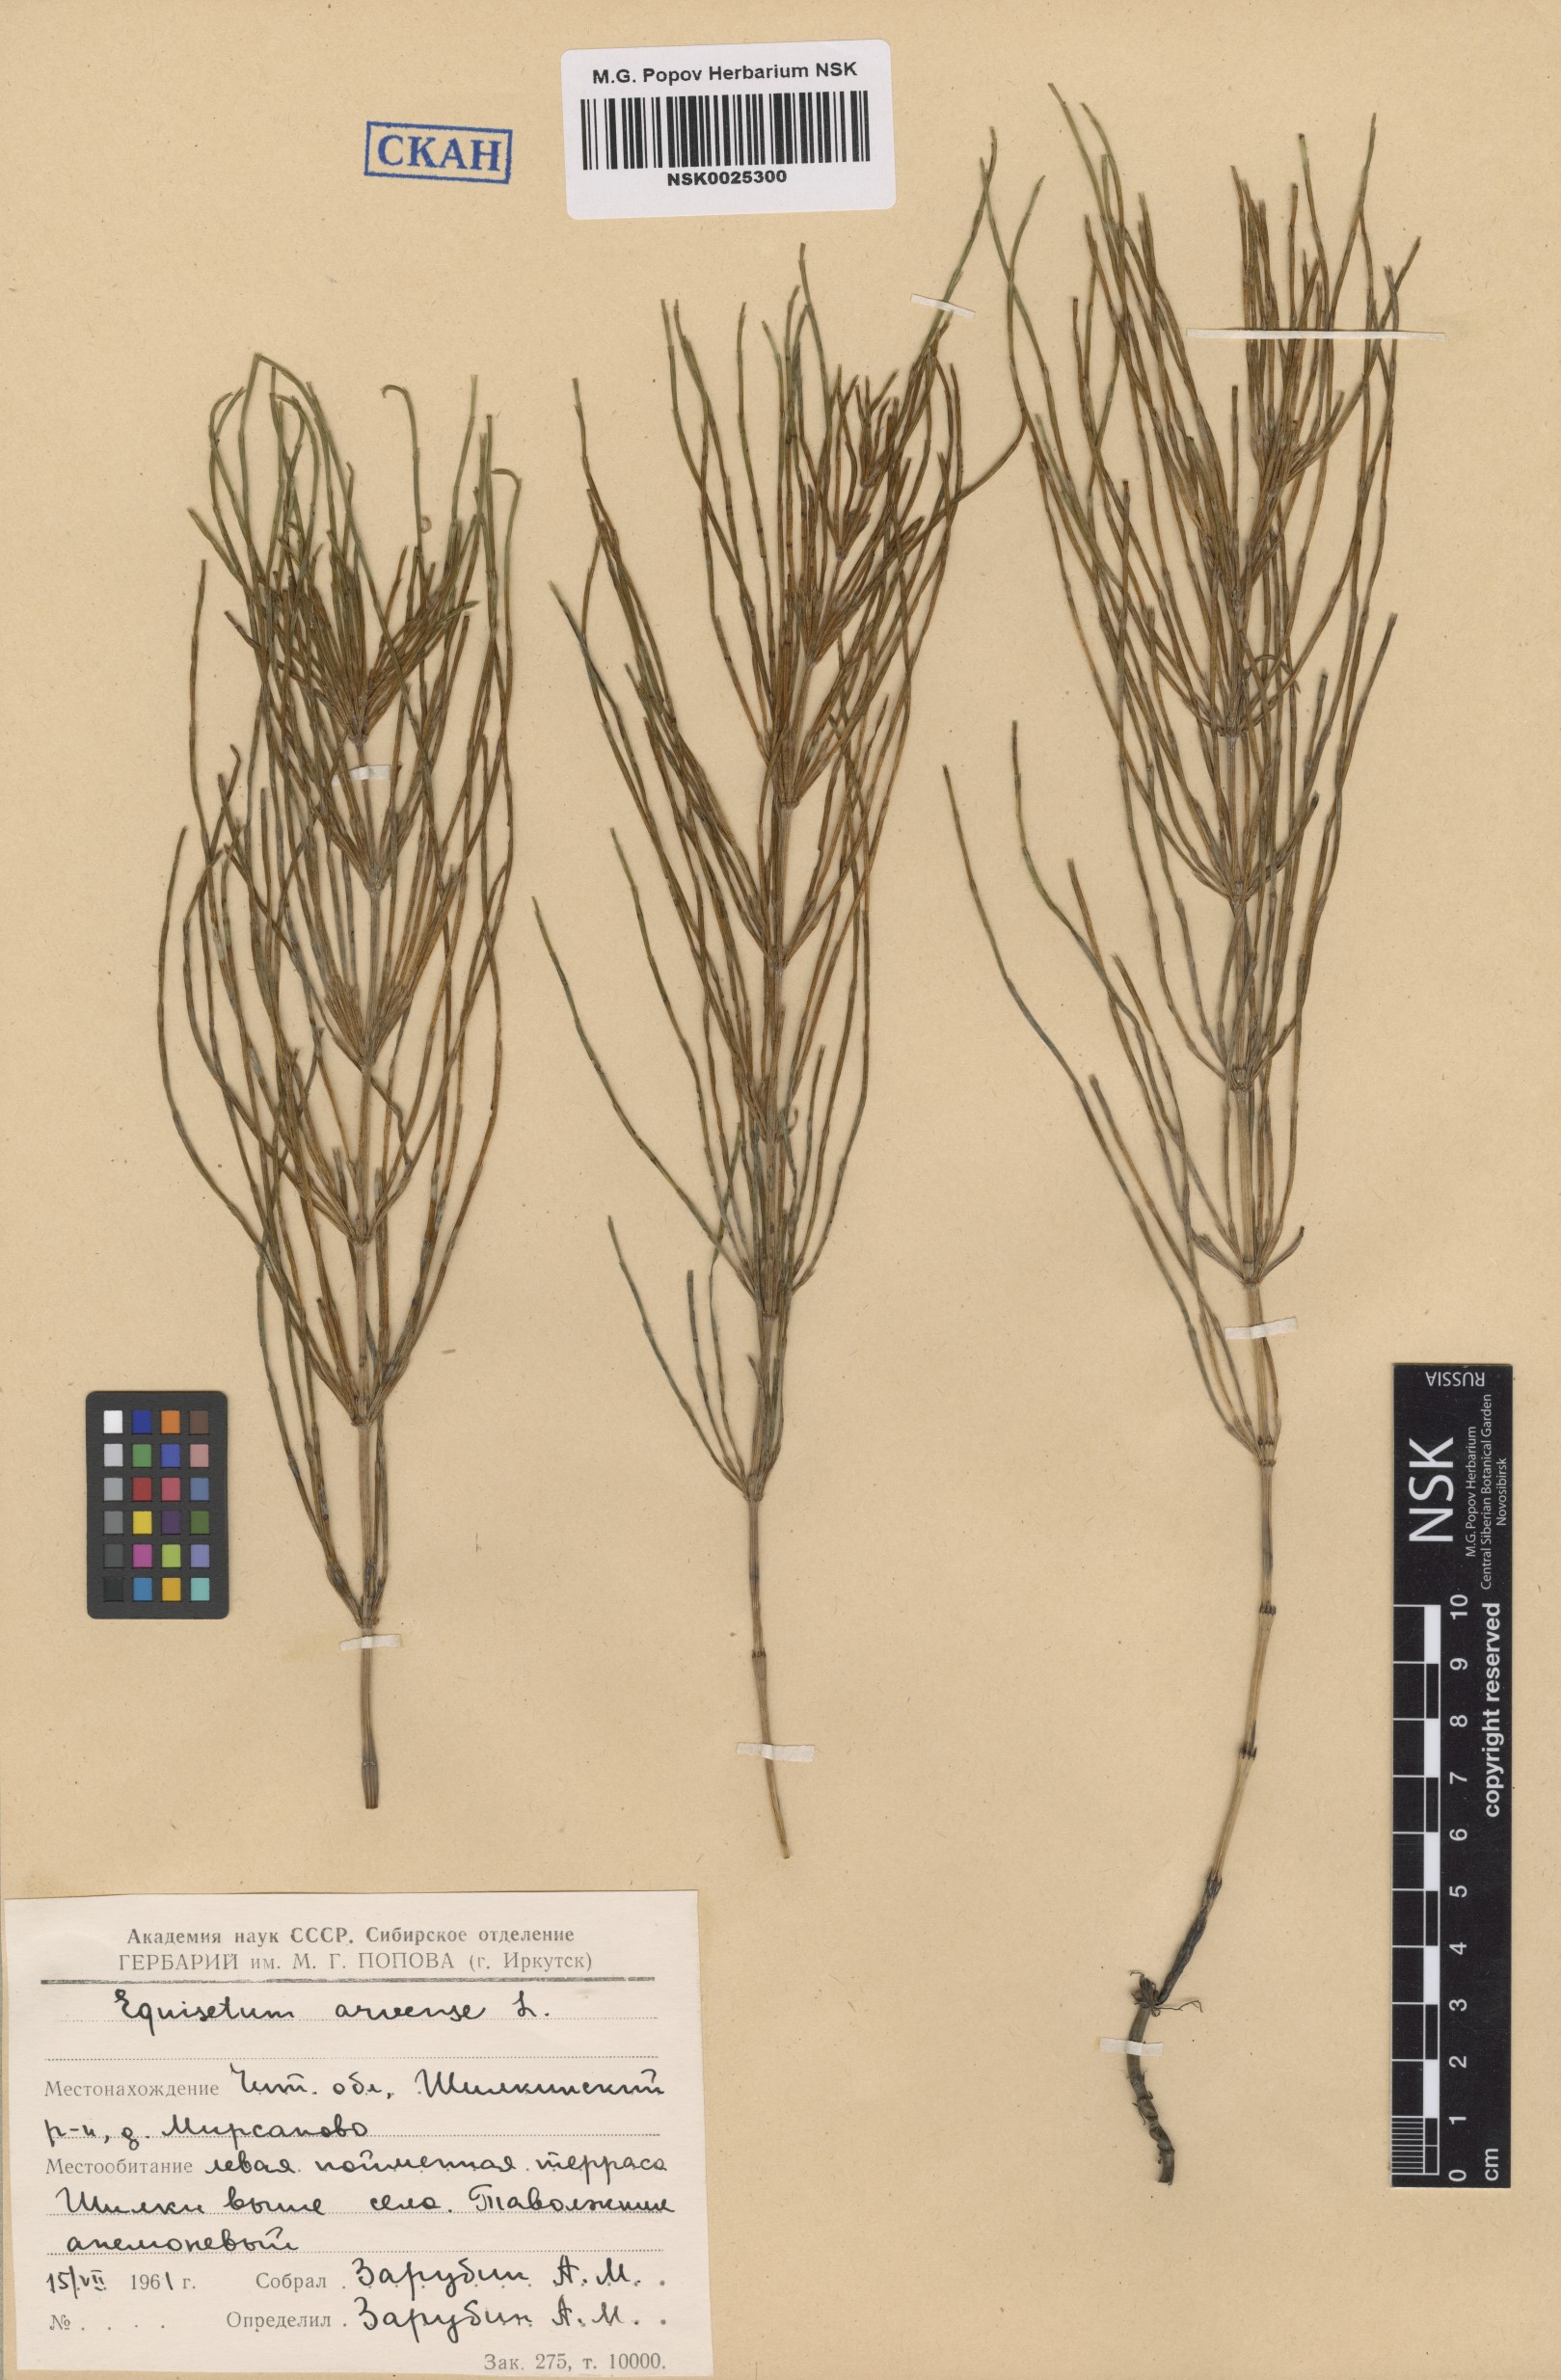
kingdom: Plantae
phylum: Tracheophyta
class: Polypodiopsida
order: Equisetales
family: Equisetaceae
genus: Equisetum
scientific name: Equisetum arvense
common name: Field horsetail
